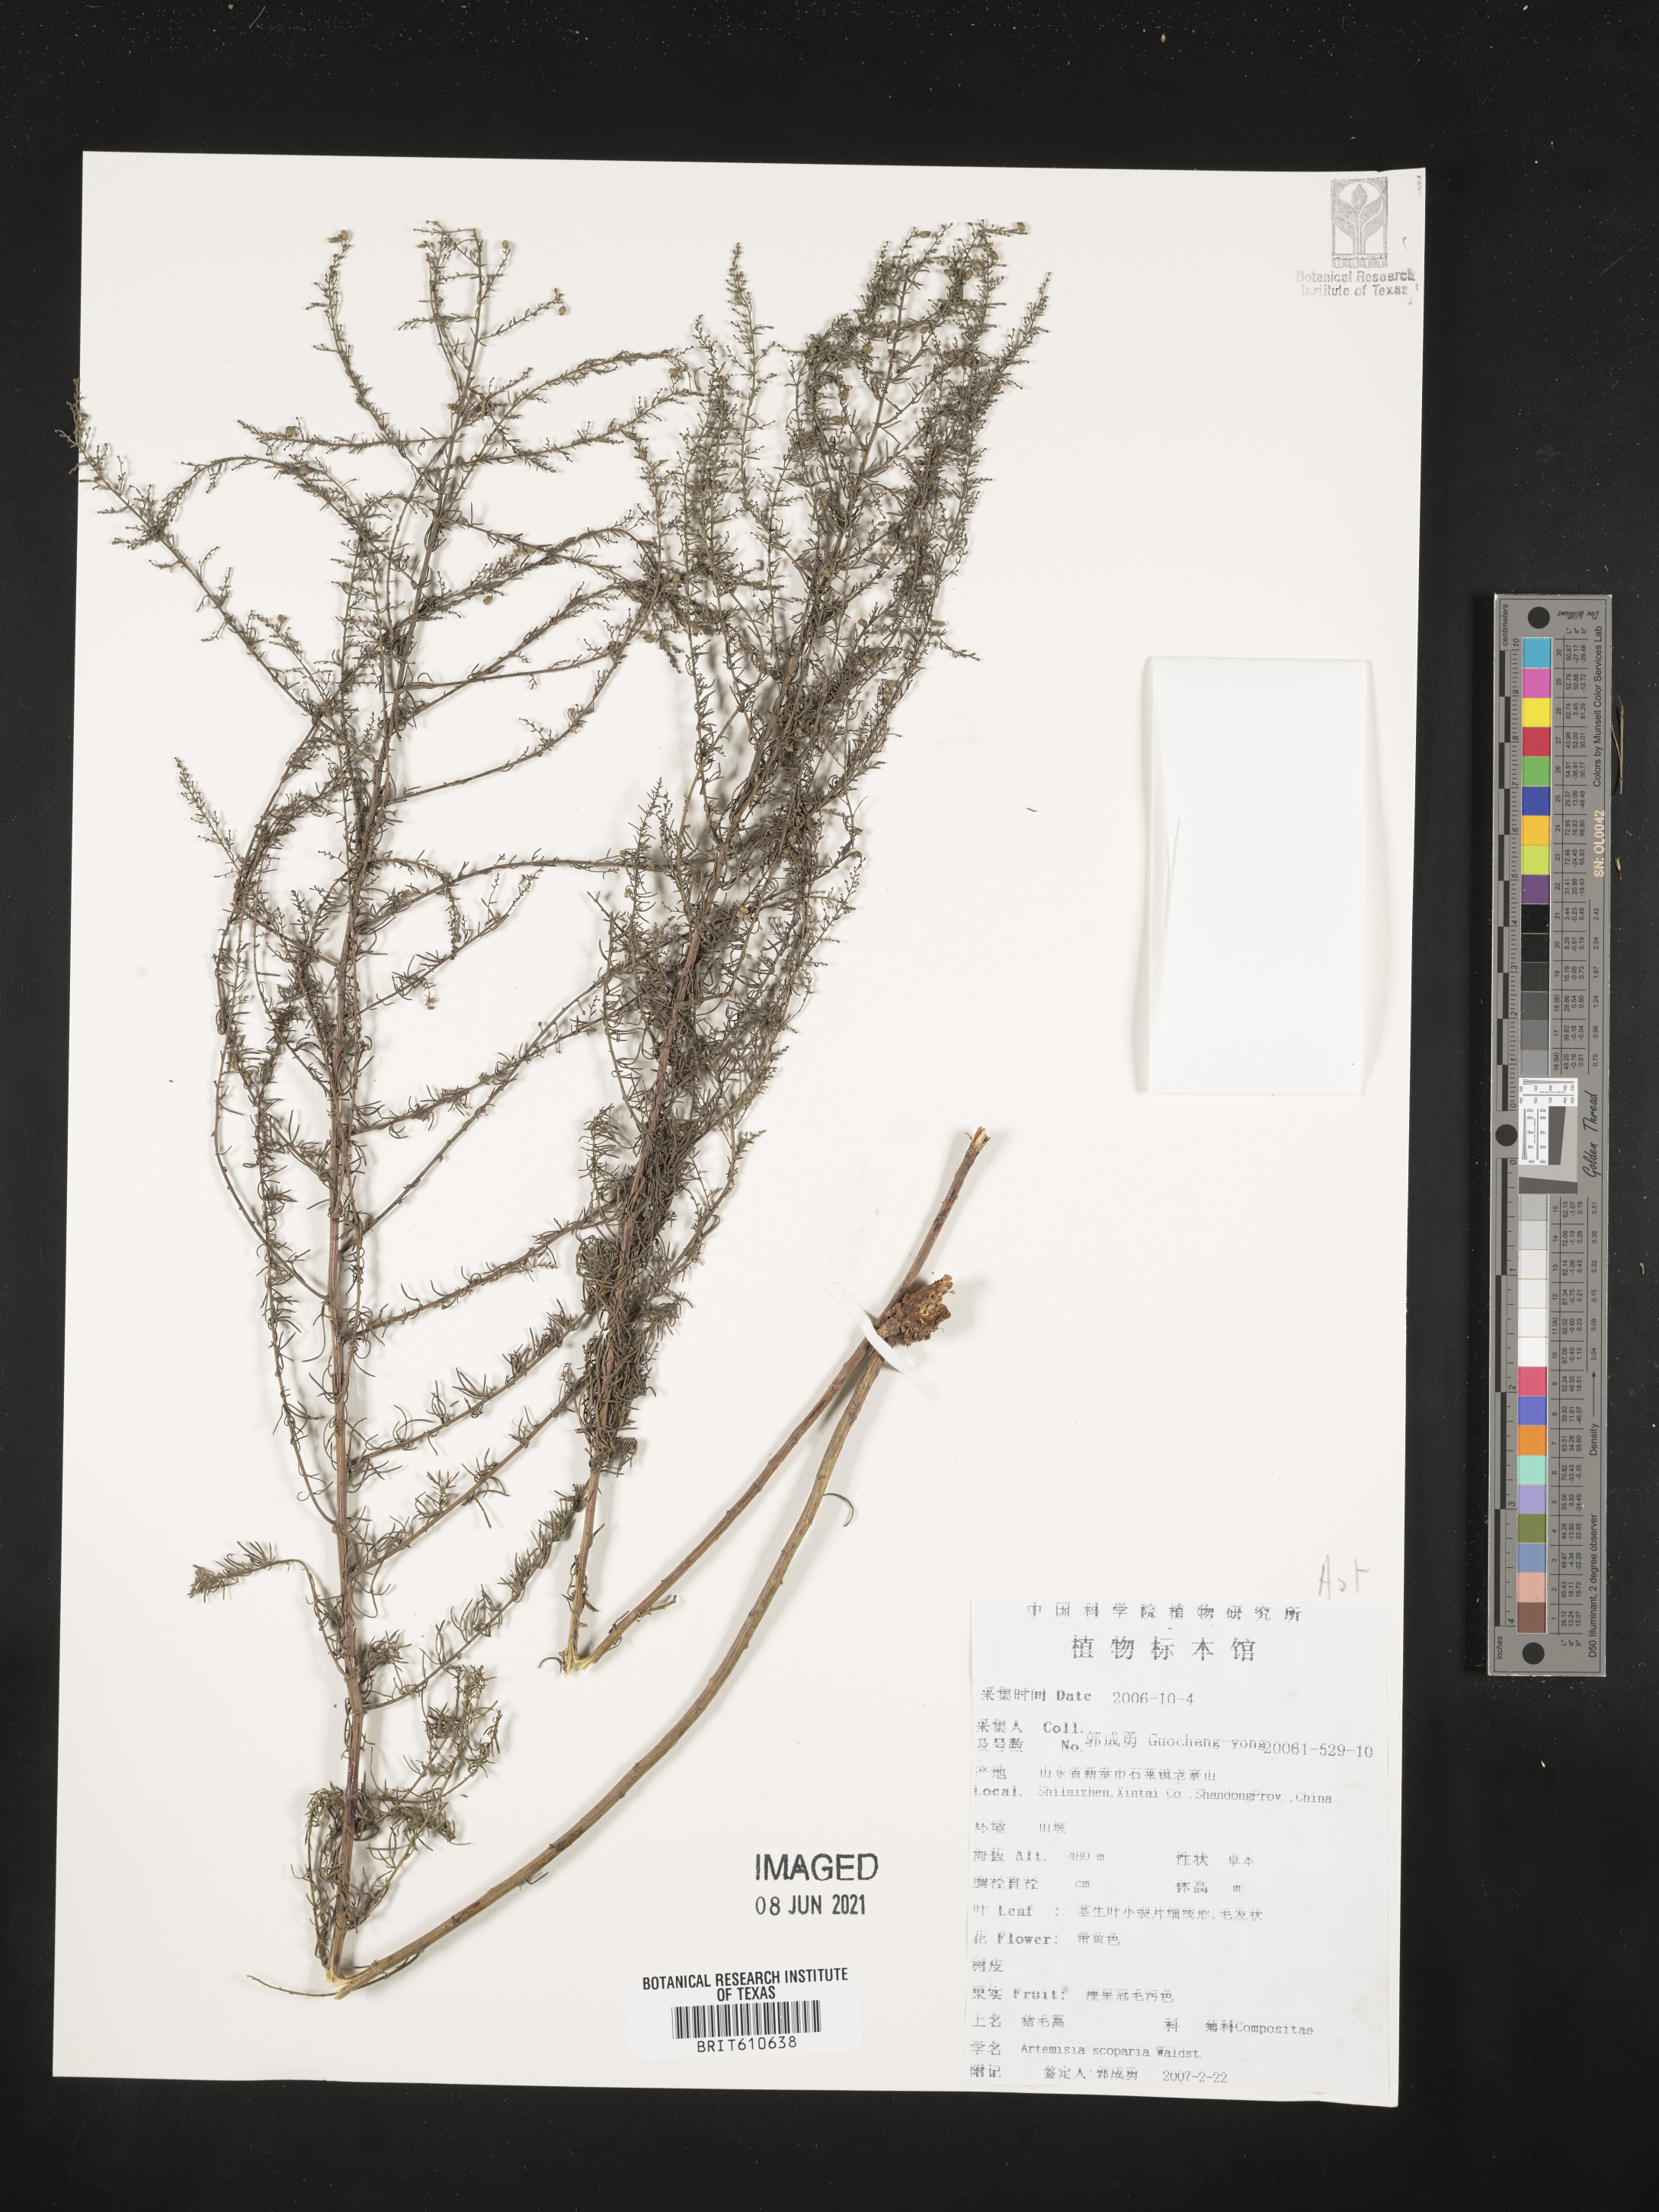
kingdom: Plantae
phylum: Tracheophyta
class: Magnoliopsida
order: Asterales
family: Asteraceae
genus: Artemisia
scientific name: Artemisia scoparia
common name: Redstem wormwood
